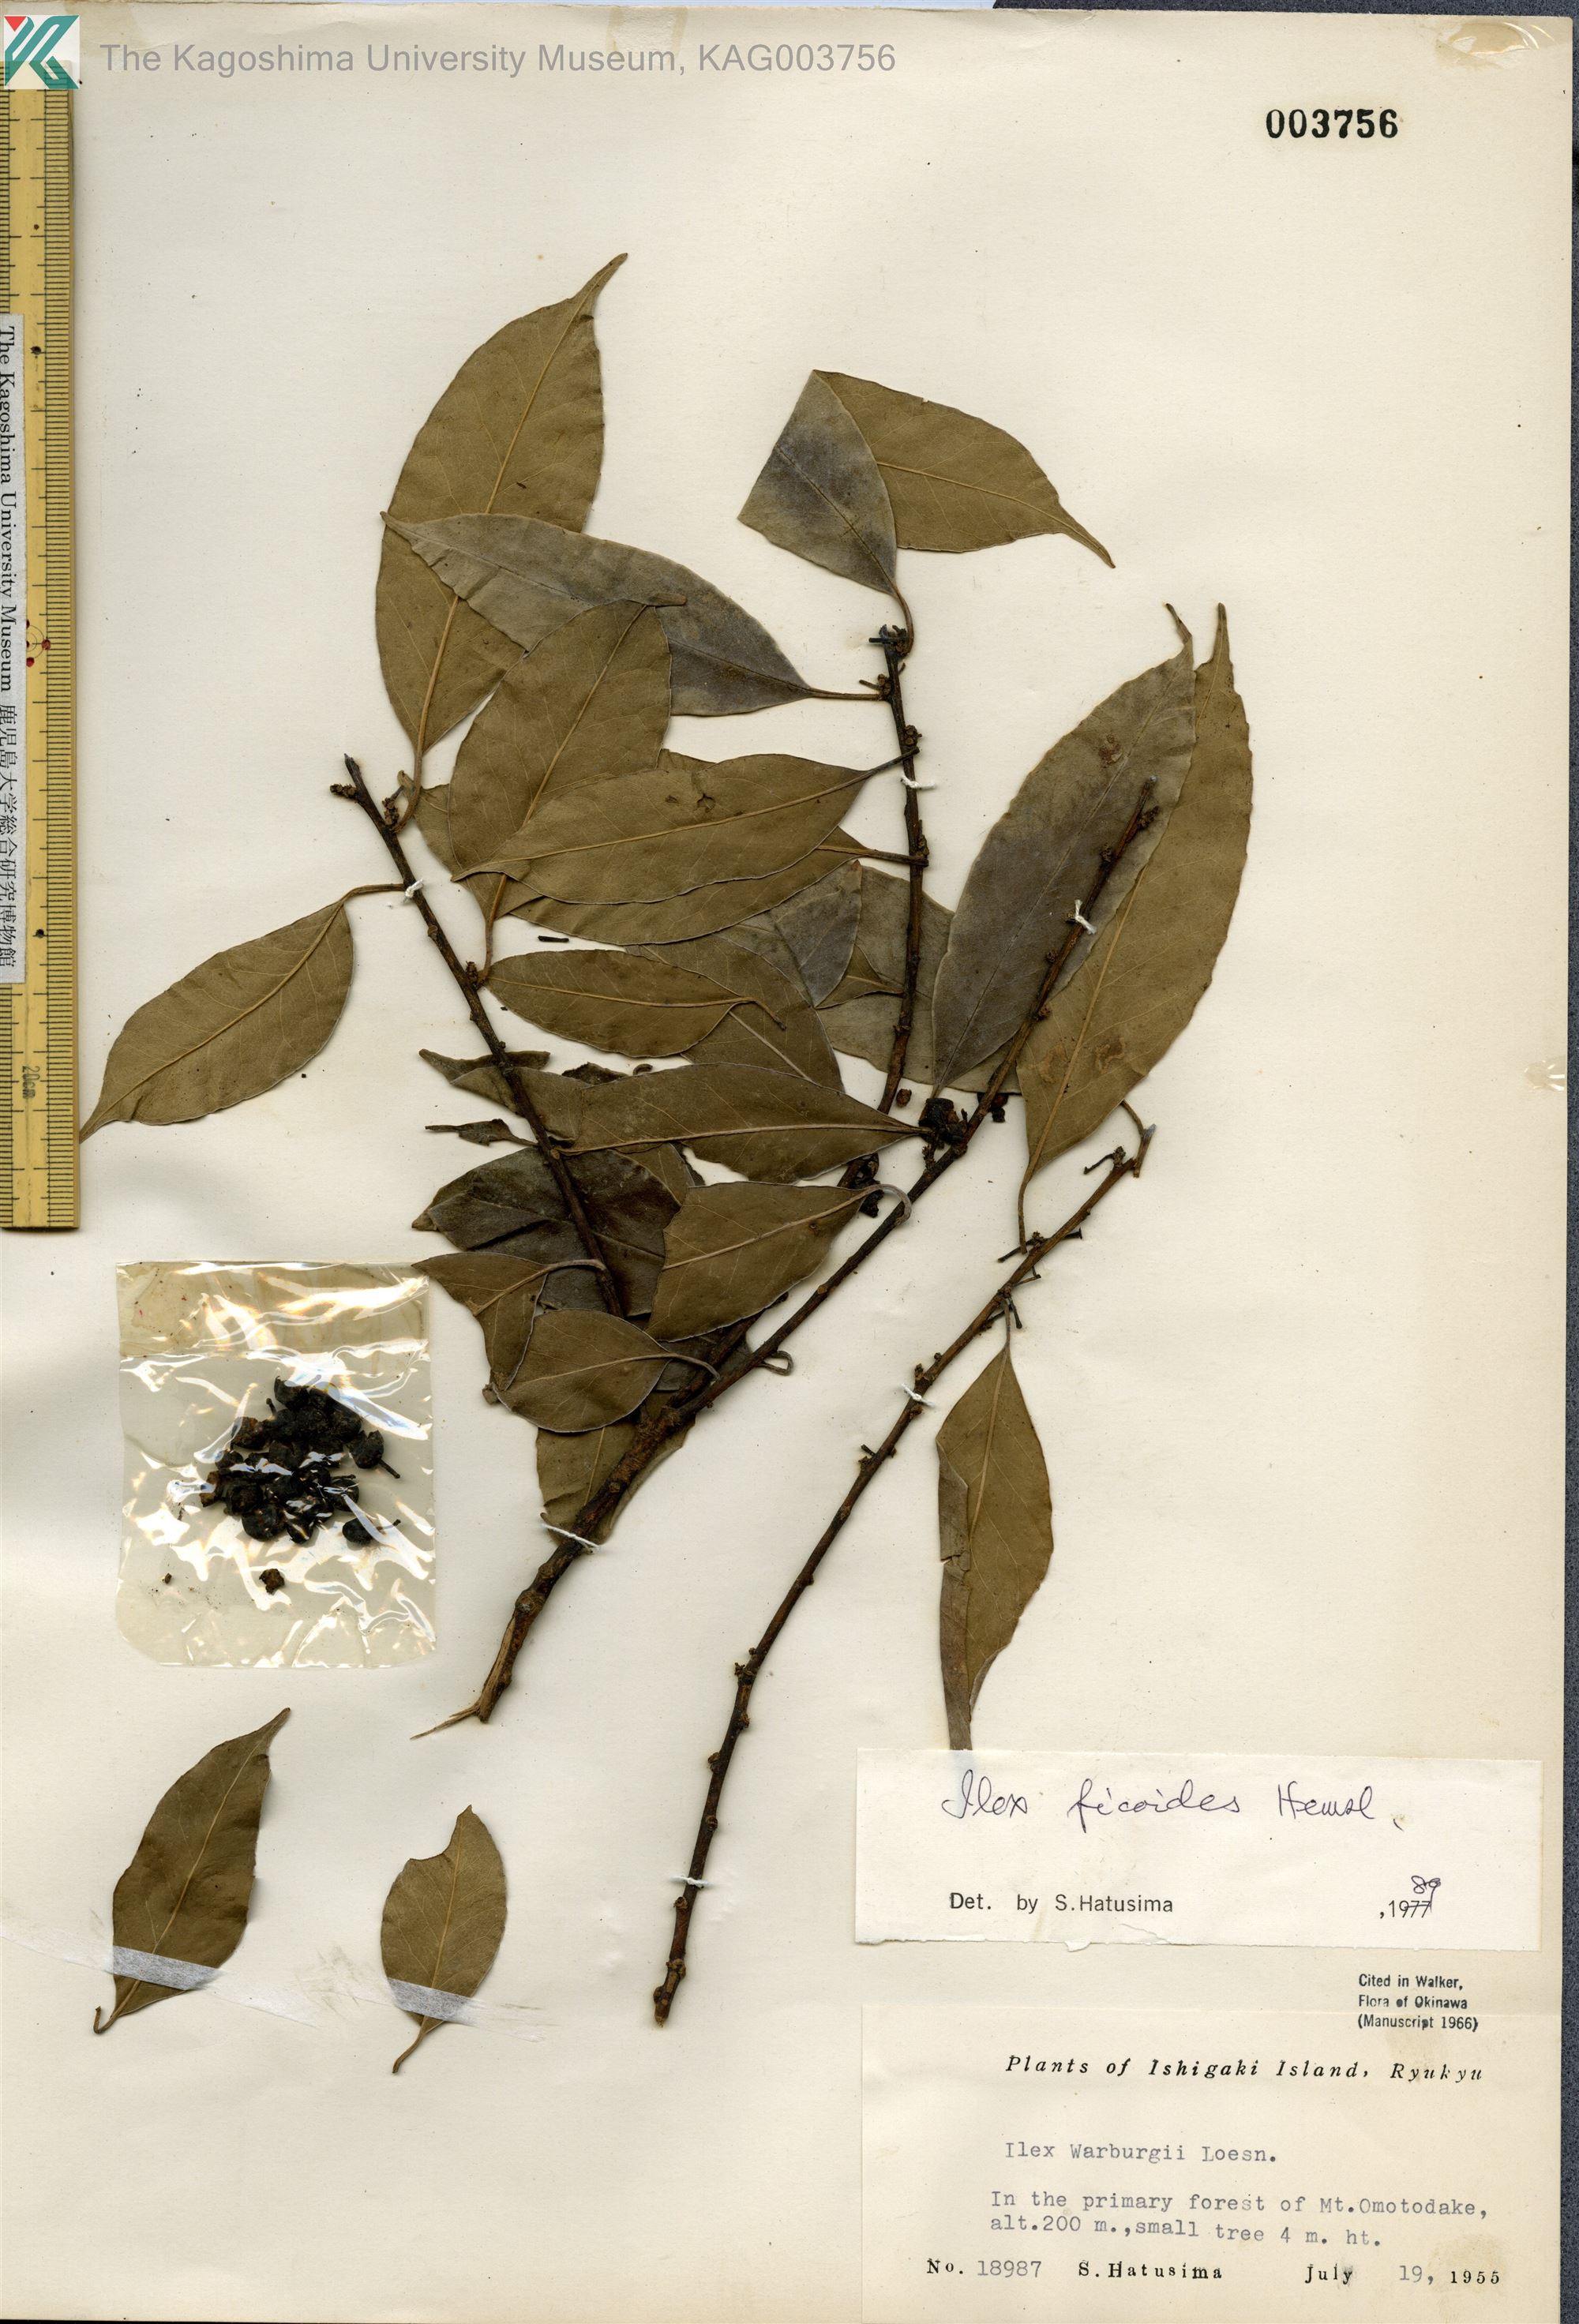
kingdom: Plantae
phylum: Tracheophyta
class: Magnoliopsida
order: Aquifoliales
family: Aquifoliaceae
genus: Ilex
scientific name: Ilex warburgii
